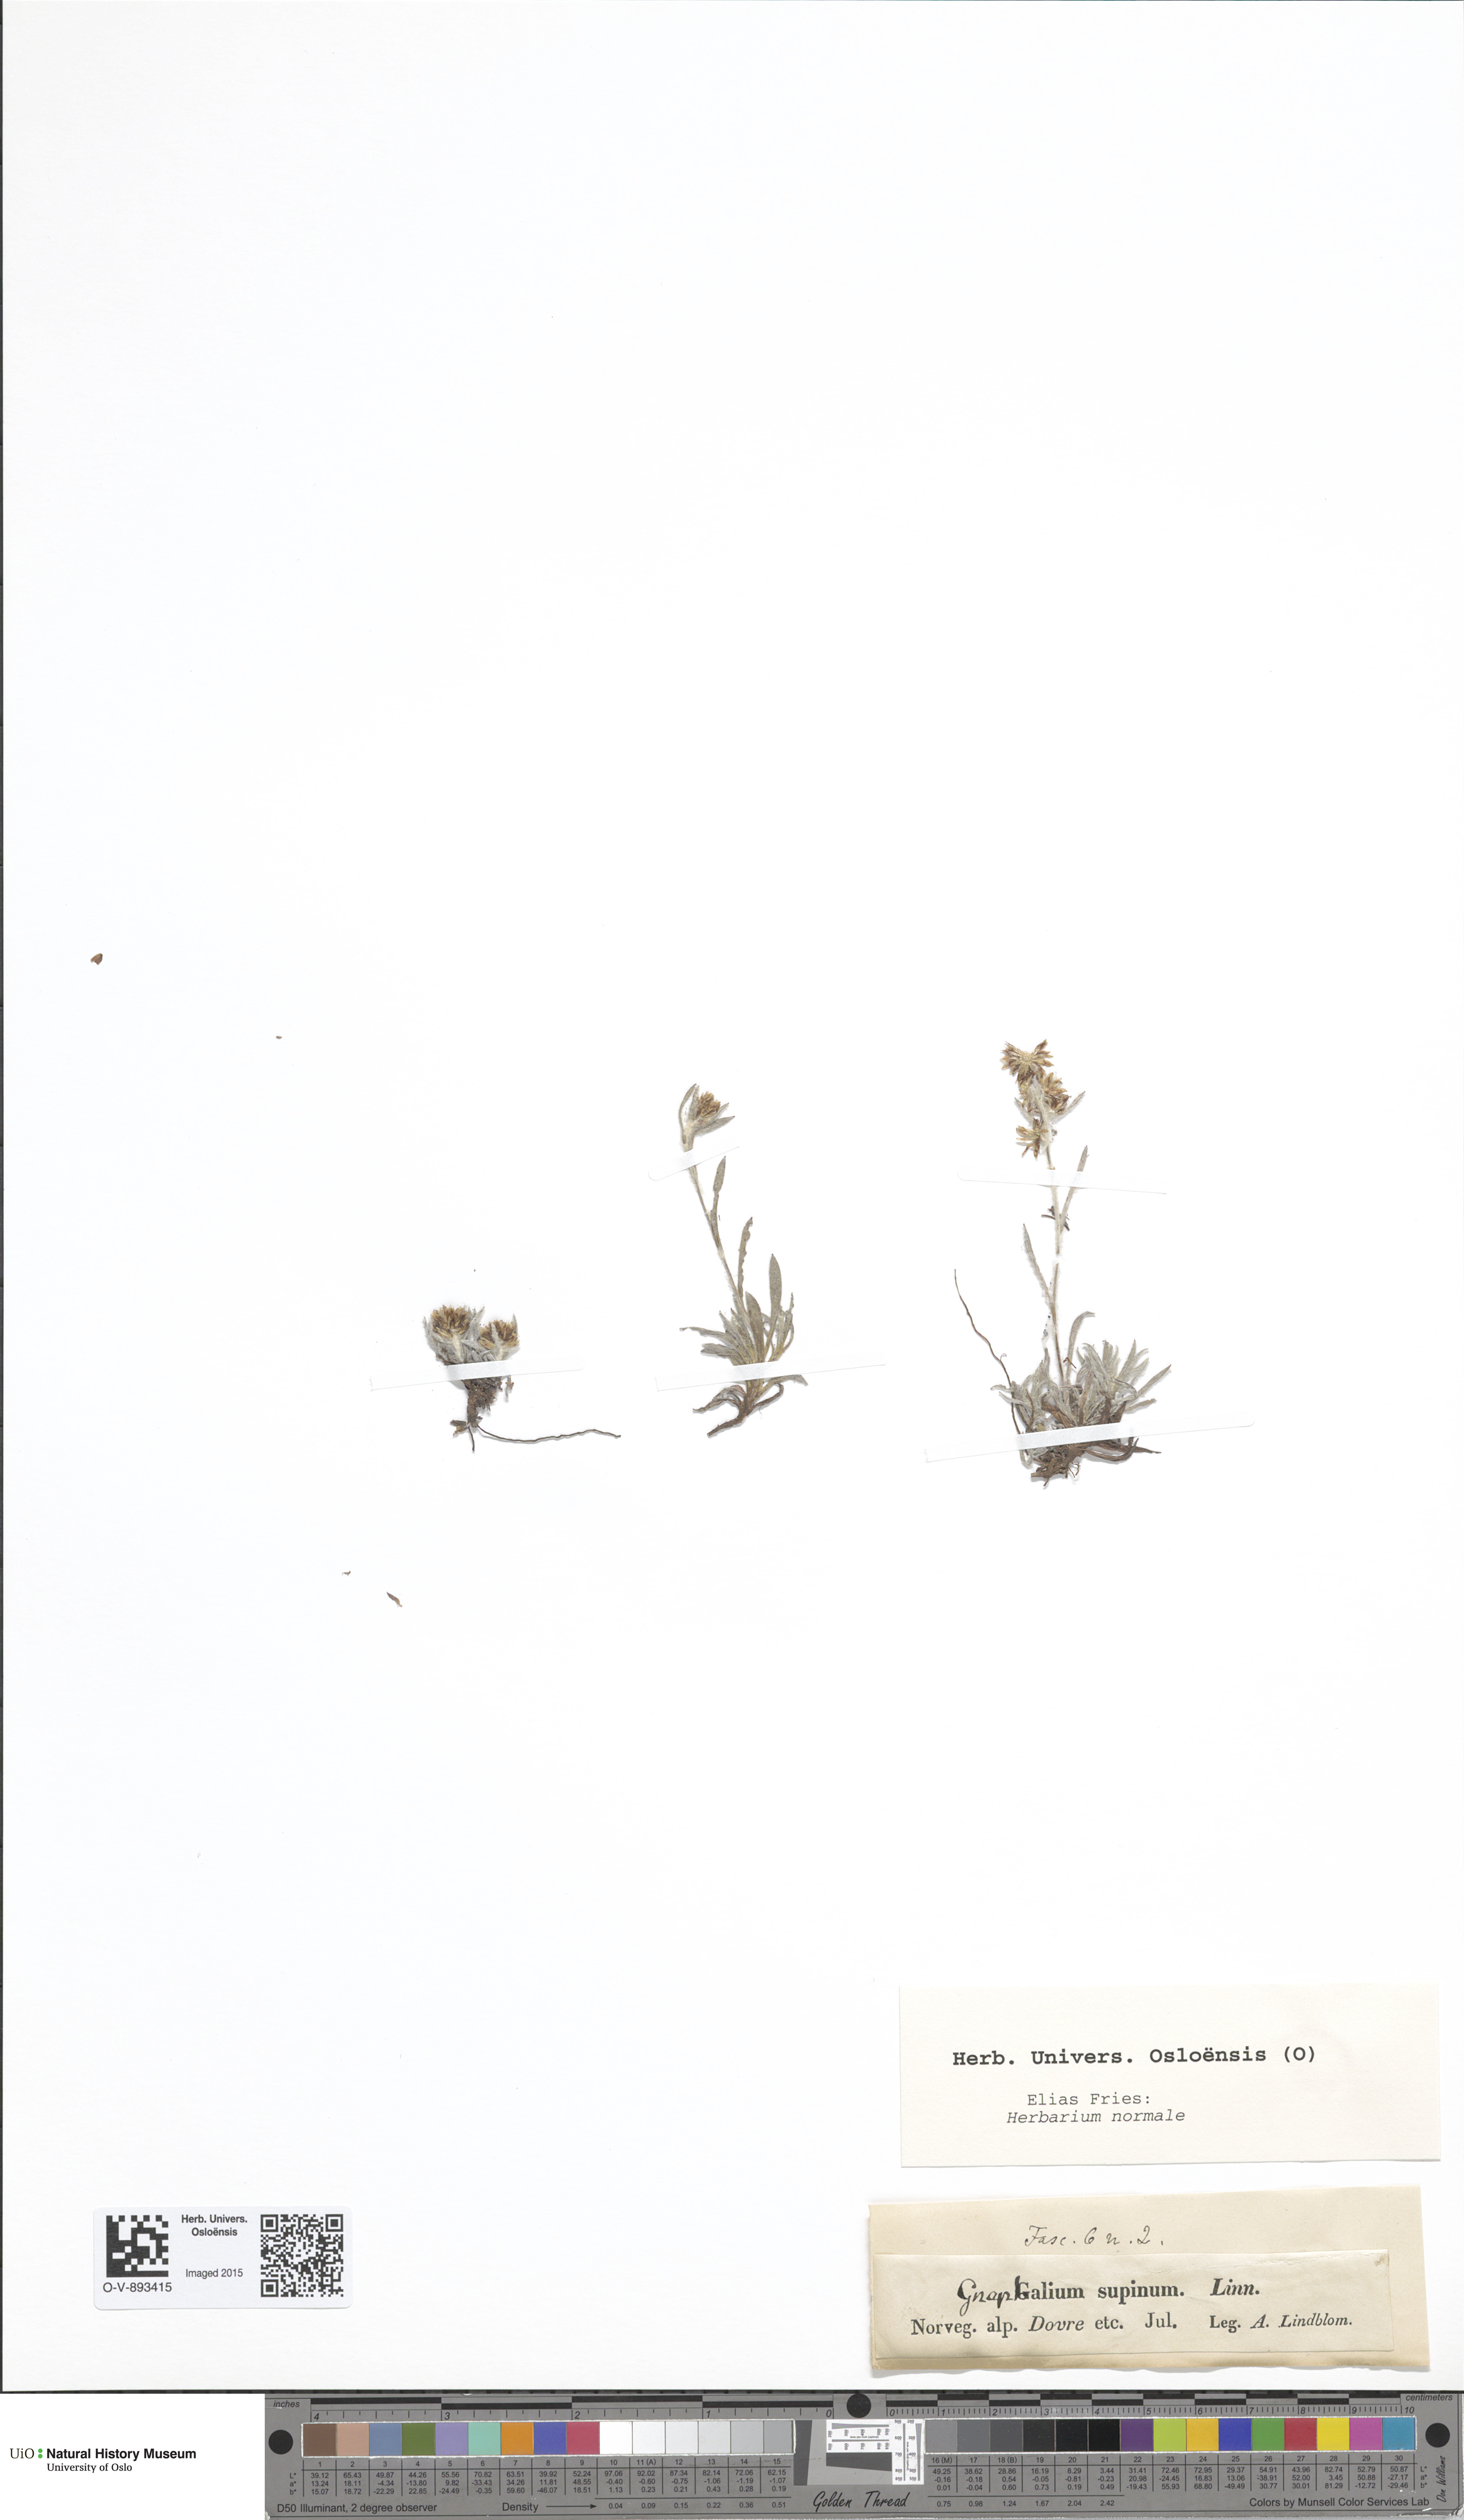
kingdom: Plantae
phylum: Tracheophyta
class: Magnoliopsida
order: Asterales
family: Asteraceae
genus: Omalotheca
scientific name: Omalotheca supina
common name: Alpine arctic-cudweed
